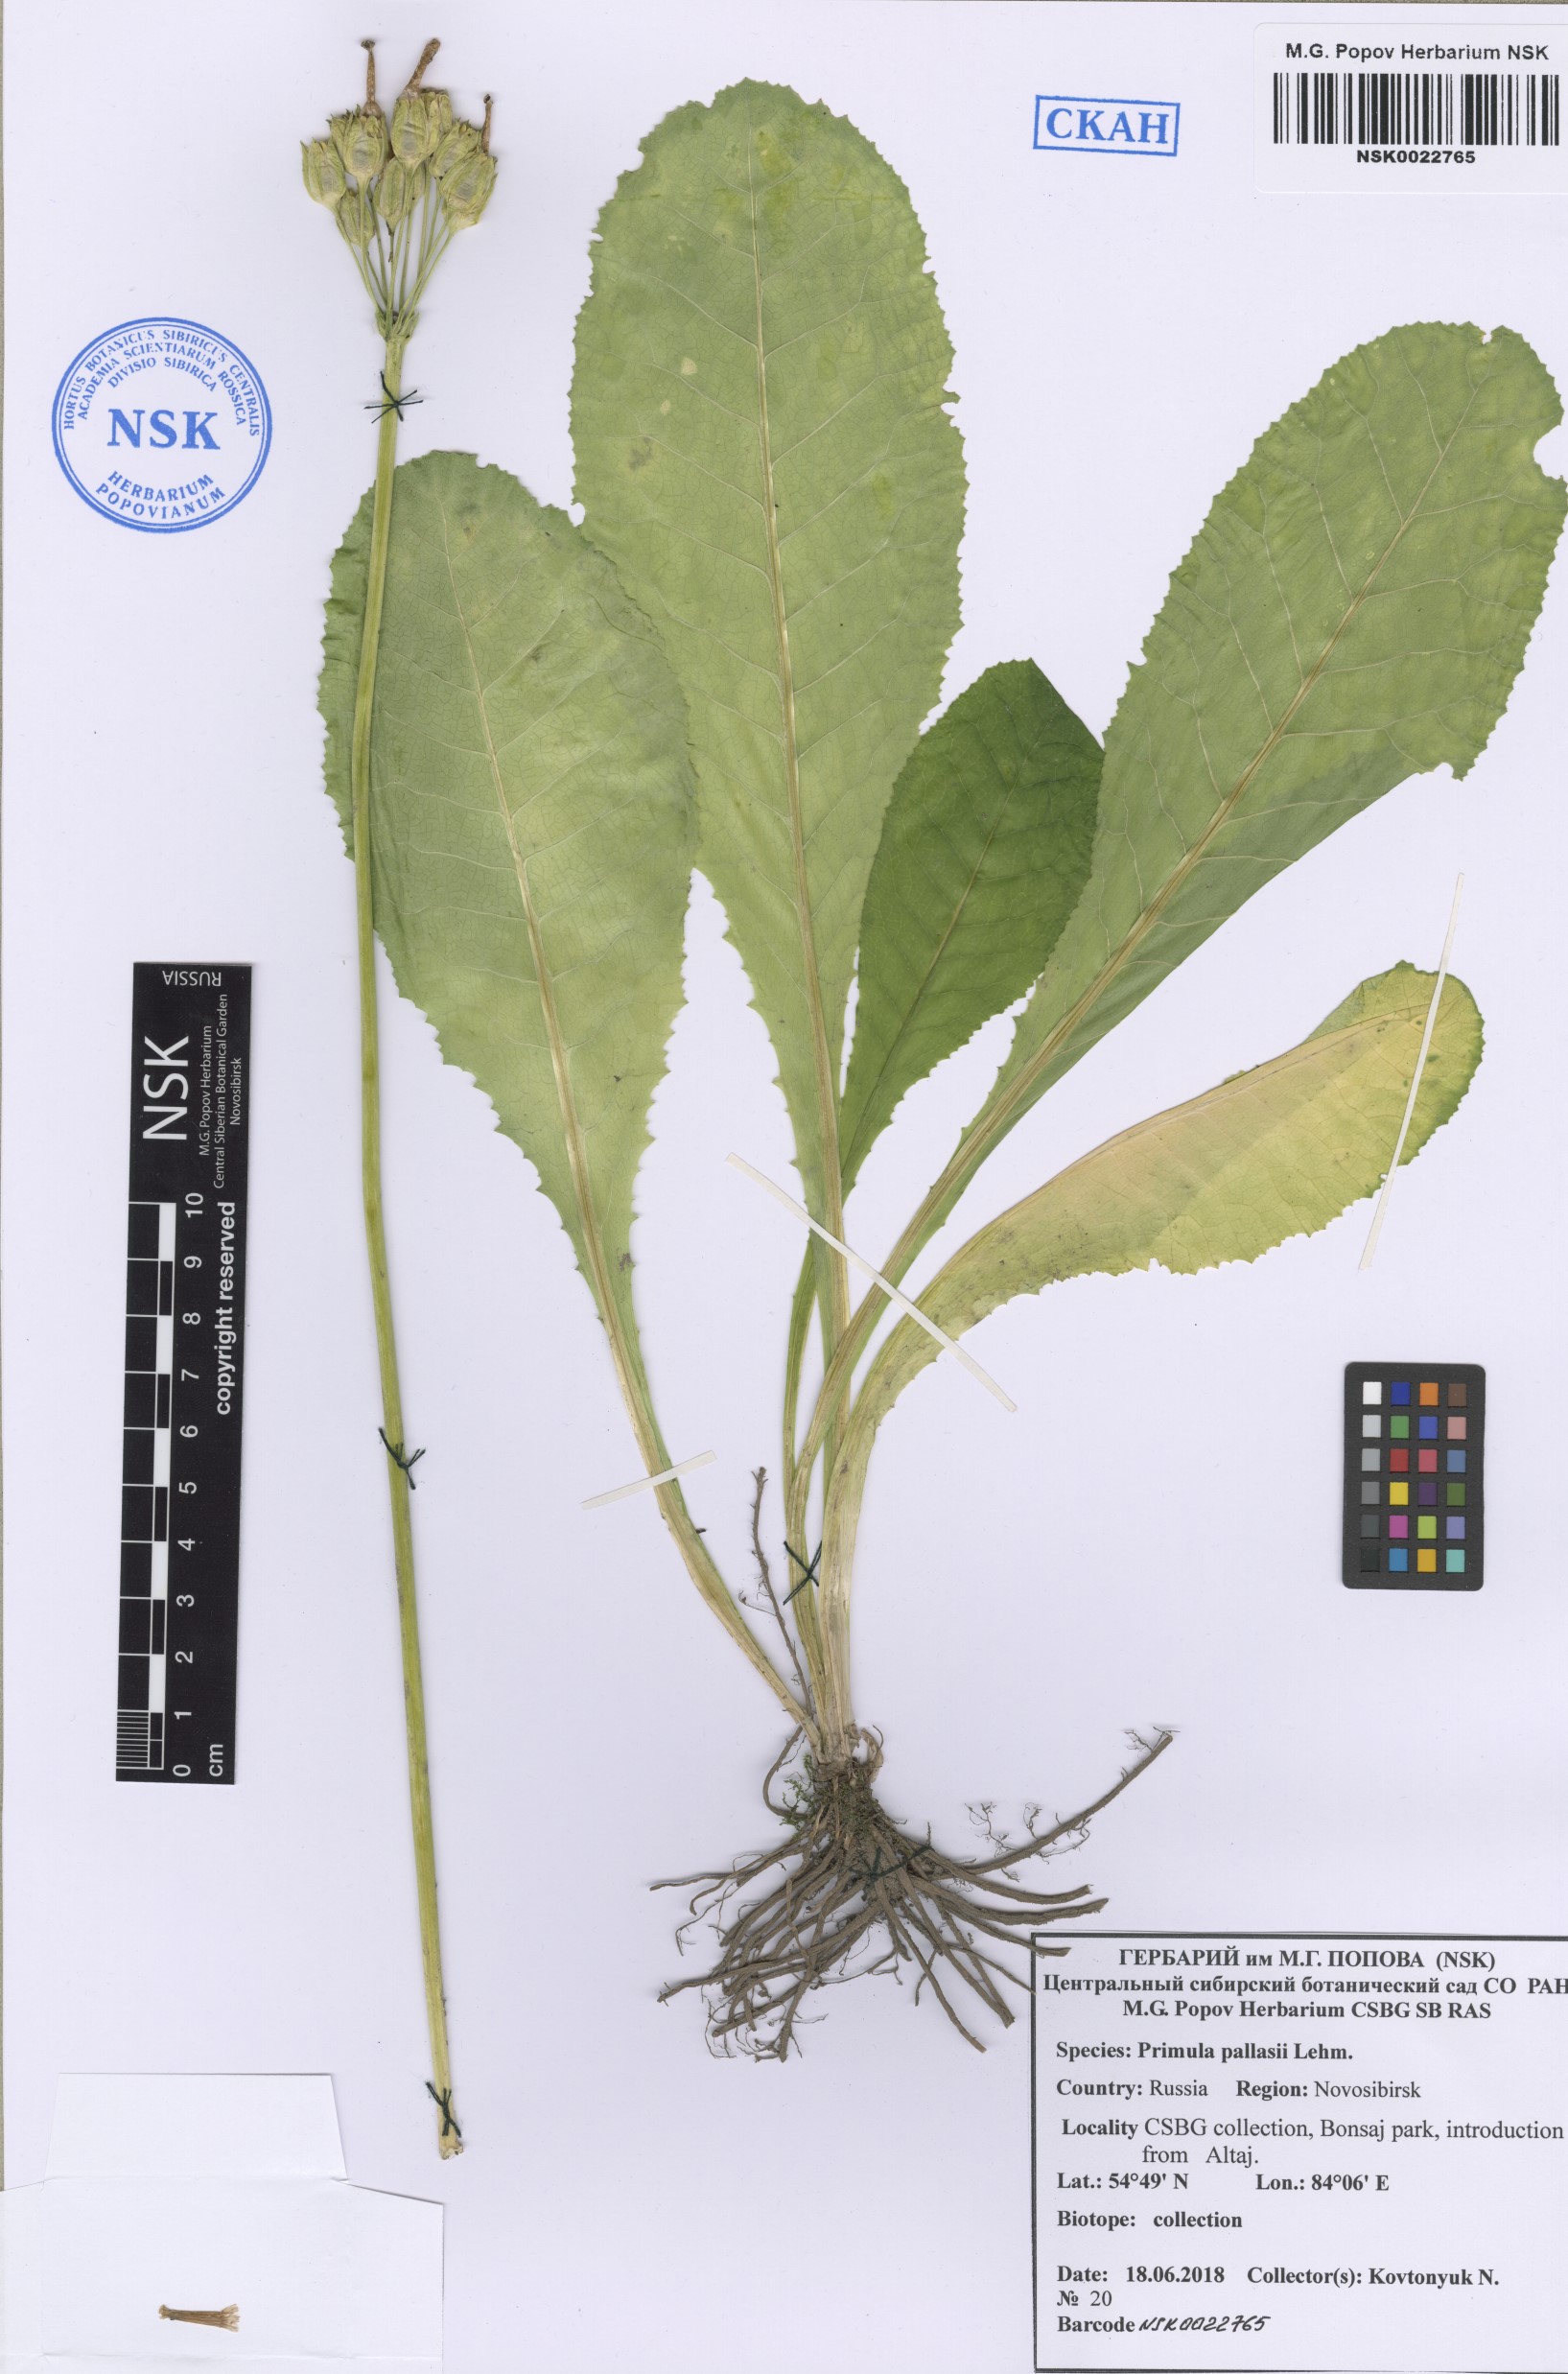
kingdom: Plantae
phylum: Tracheophyta
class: Magnoliopsida
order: Ericales
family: Primulaceae
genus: Primula
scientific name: Primula elatior
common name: Oxlip
